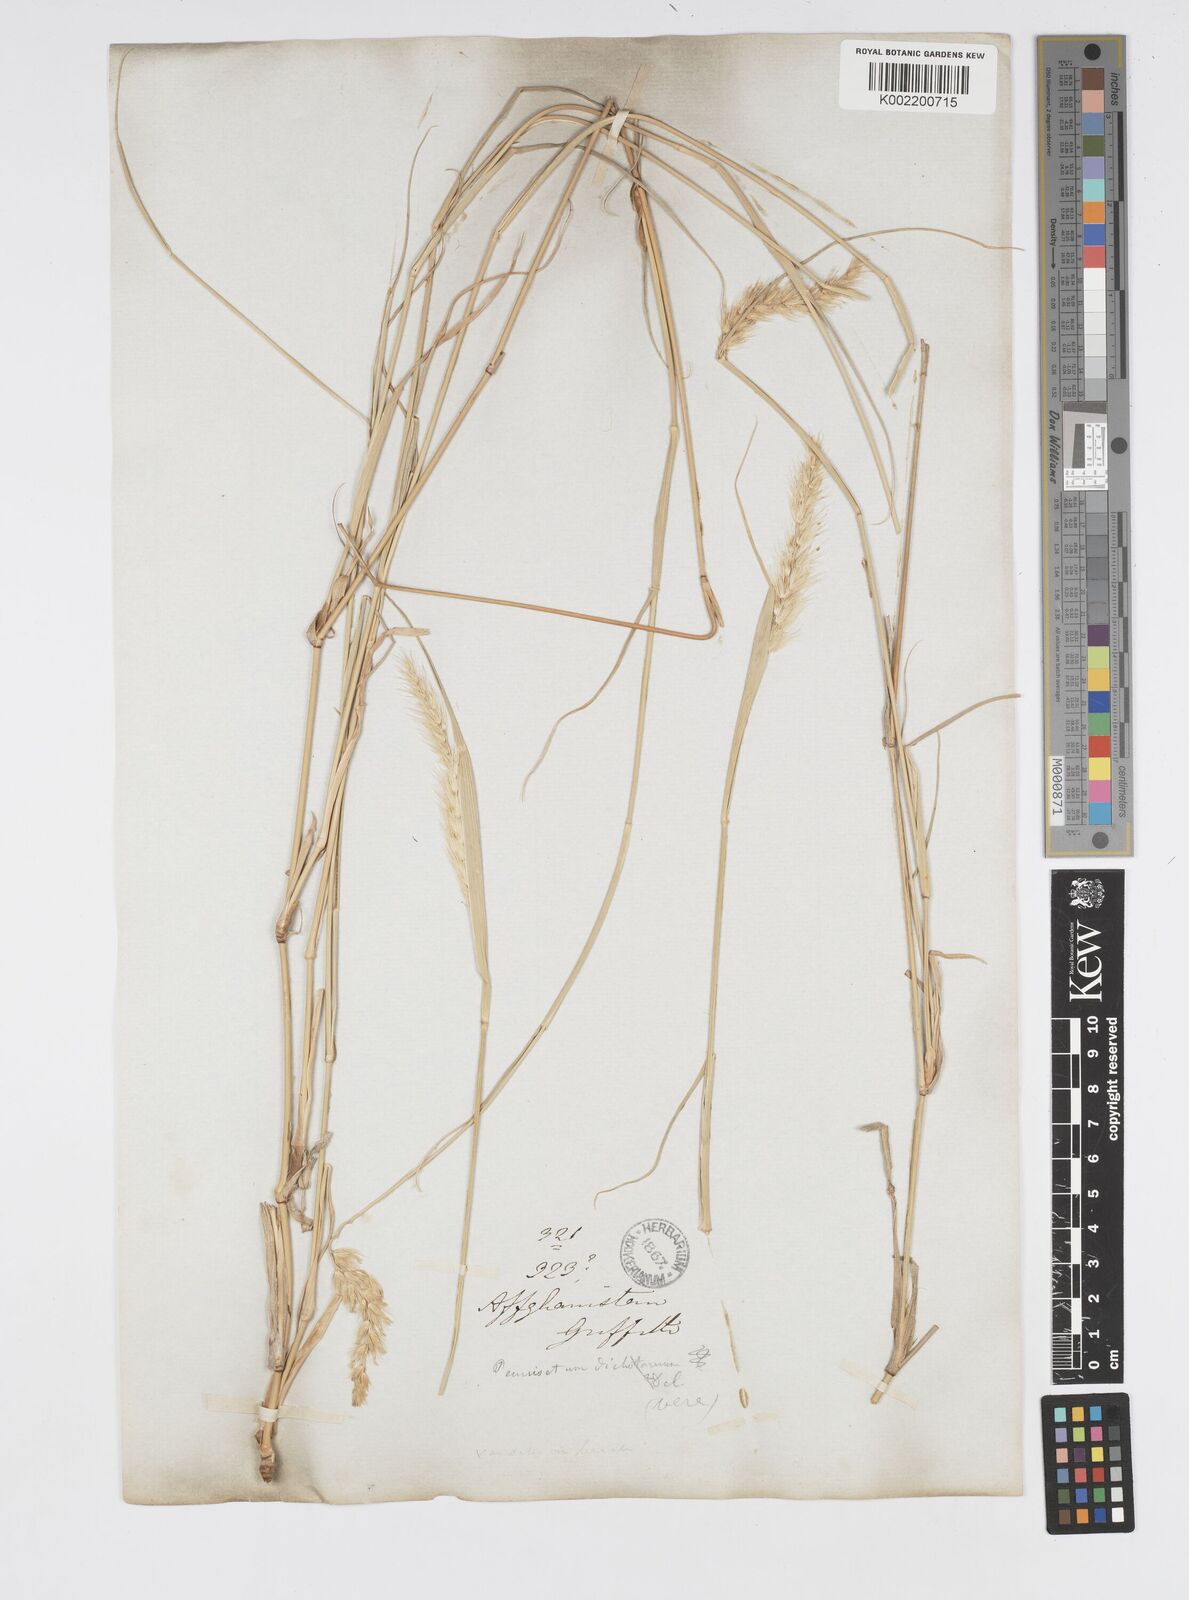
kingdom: Plantae
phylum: Tracheophyta
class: Liliopsida
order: Poales
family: Poaceae
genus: Cenchrus
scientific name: Cenchrus divisus
